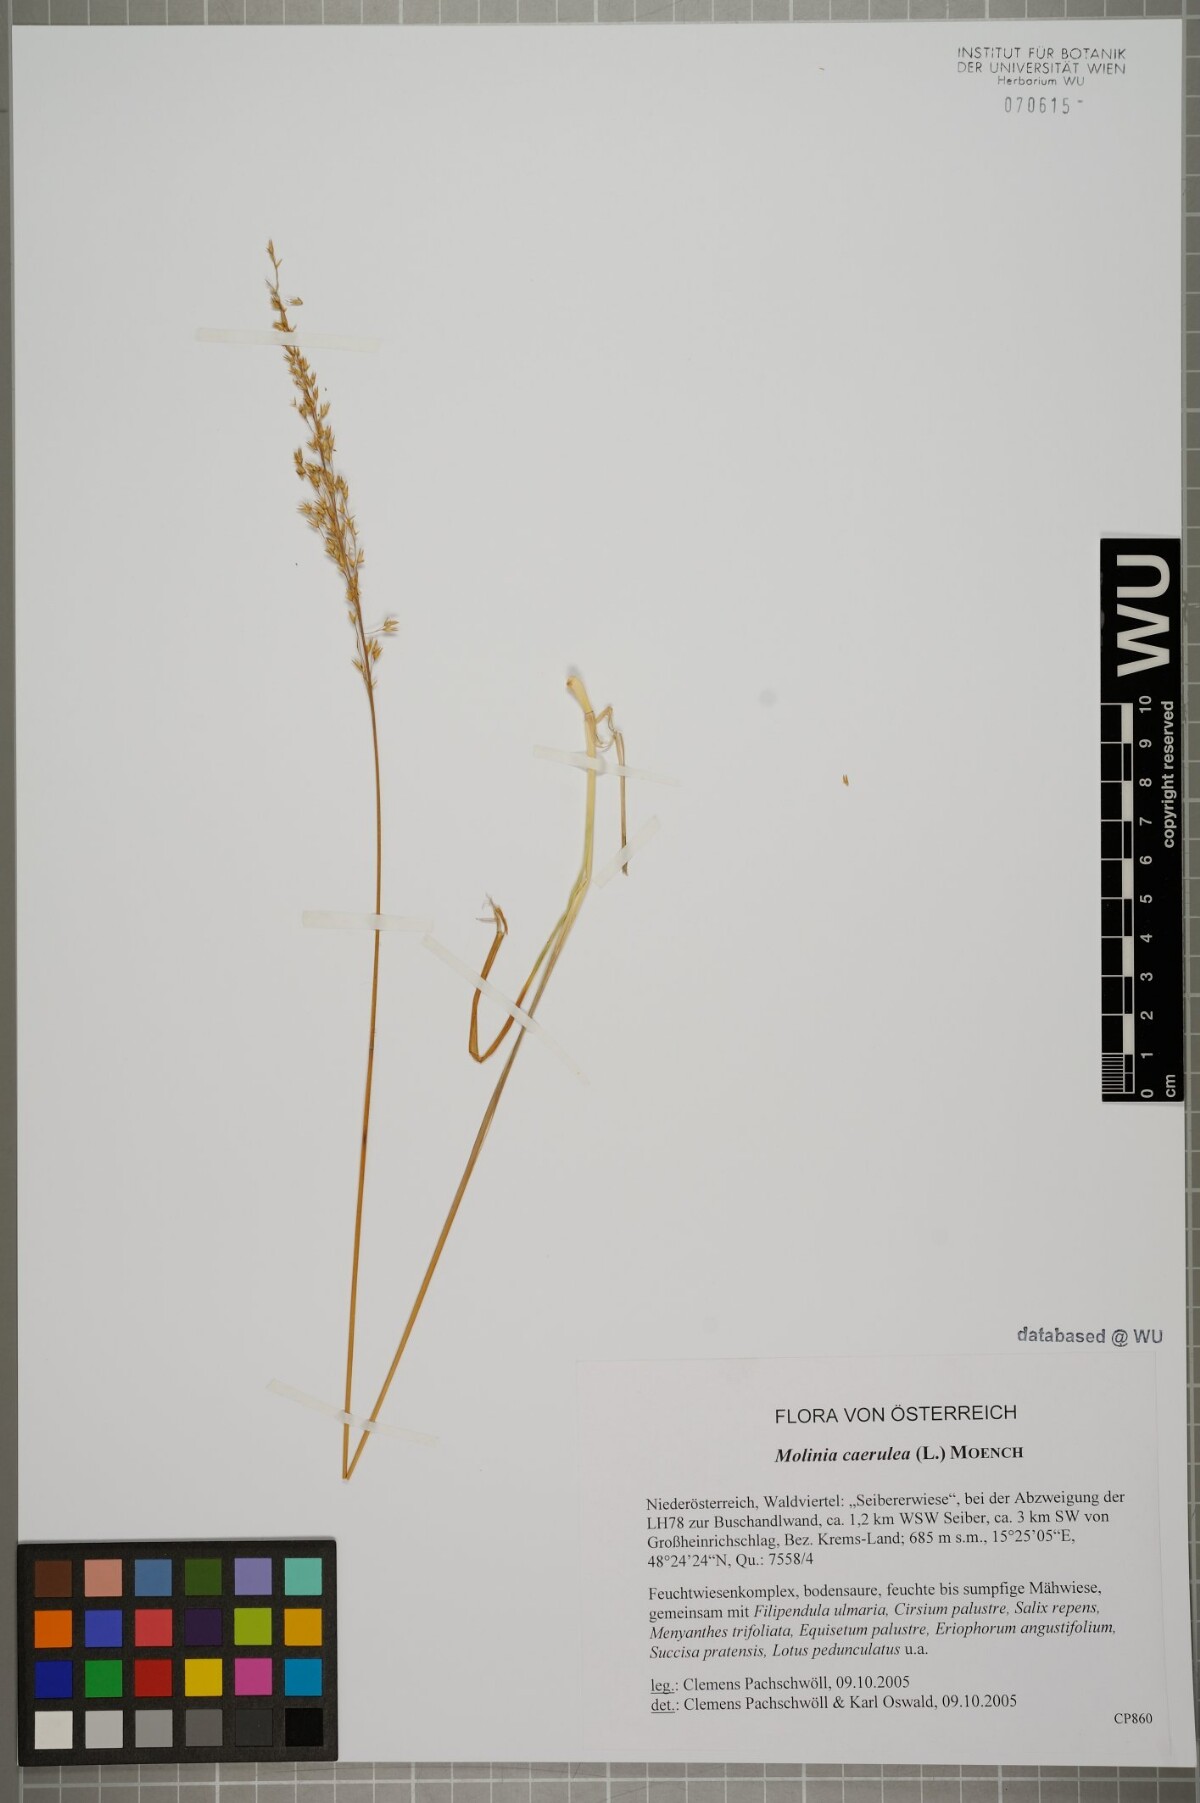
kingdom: Plantae
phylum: Tracheophyta
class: Liliopsida
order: Poales
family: Poaceae
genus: Molinia
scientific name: Molinia caerulea
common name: Purple moor-grass
